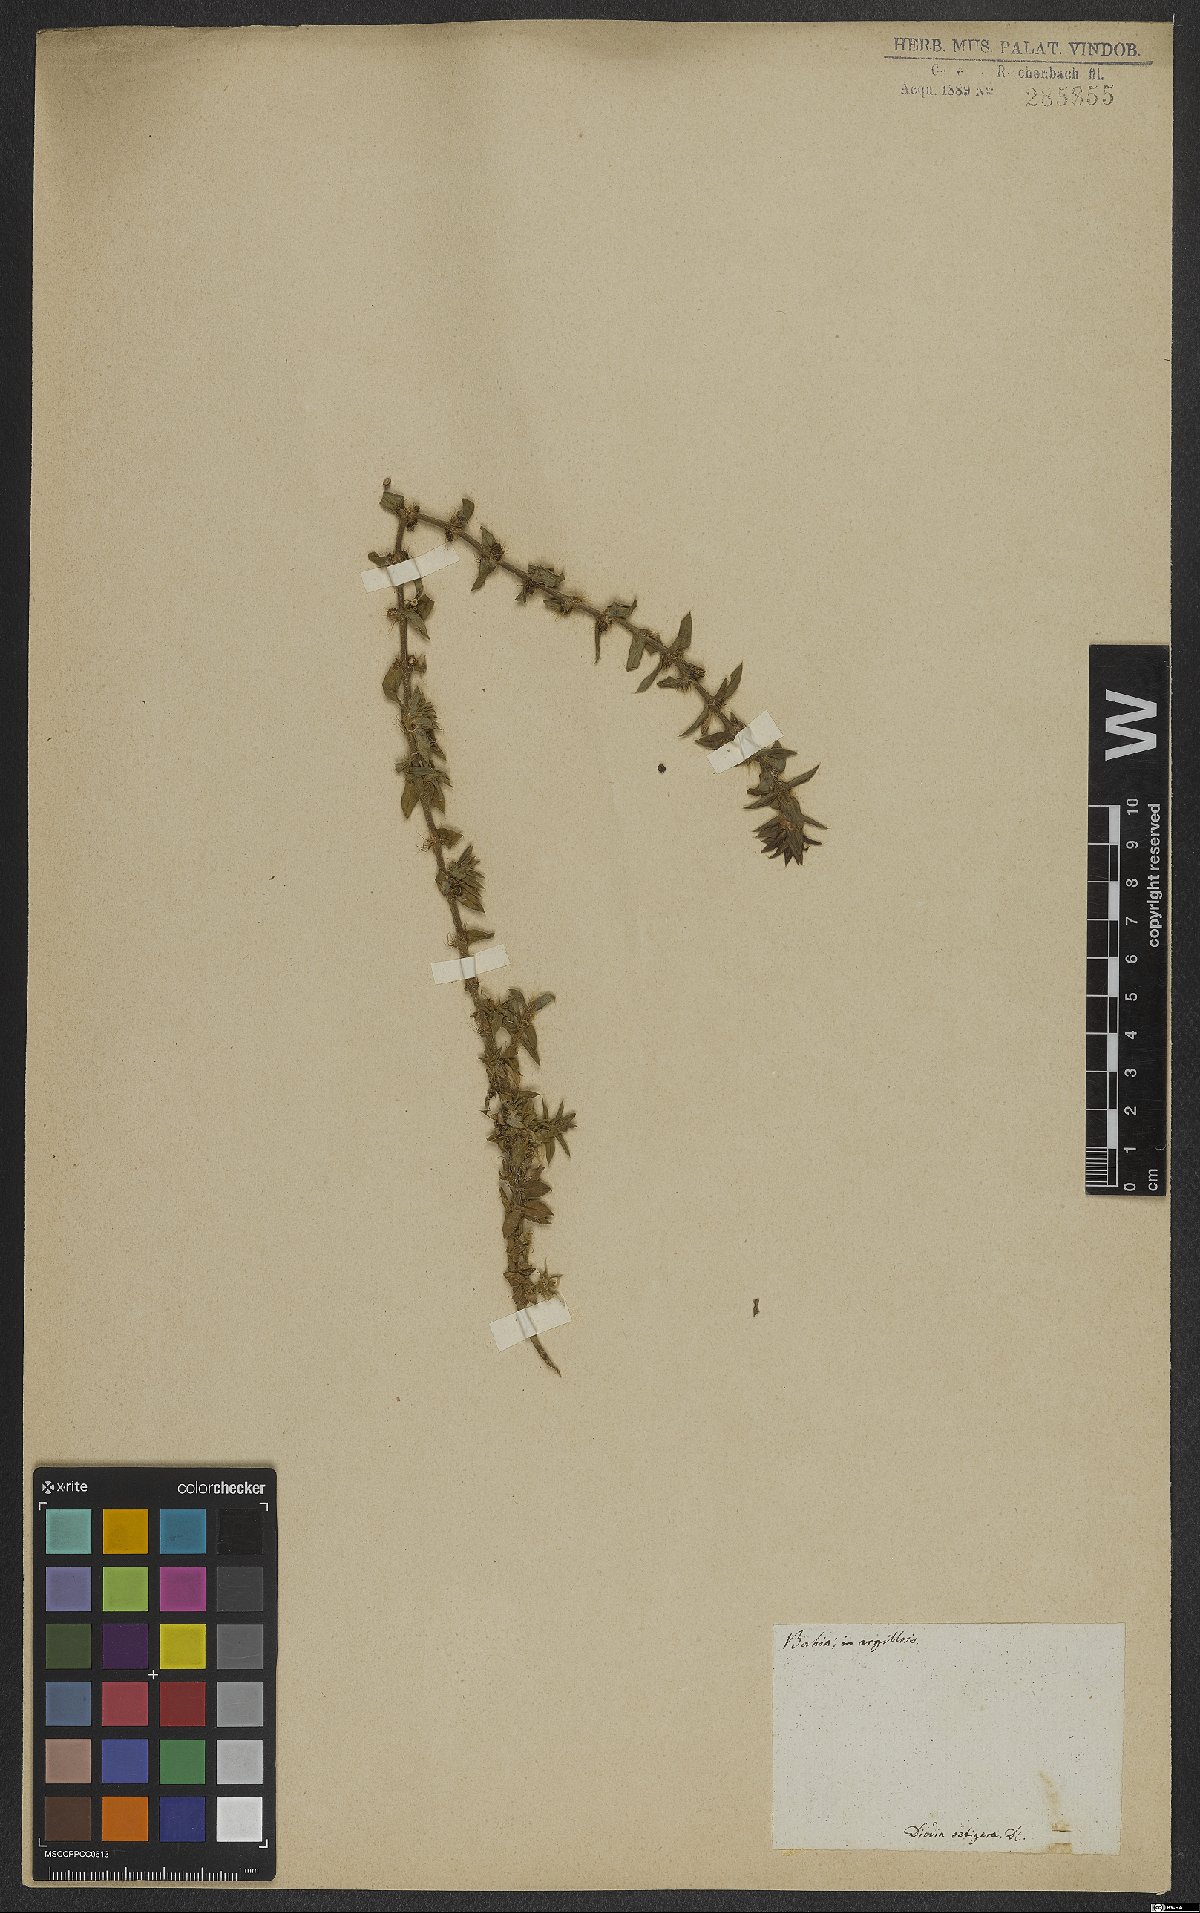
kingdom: Plantae
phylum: Tracheophyta
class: Magnoliopsida
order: Gentianales
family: Rubiaceae
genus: Hexasepalum
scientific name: Hexasepalum apiculatum
